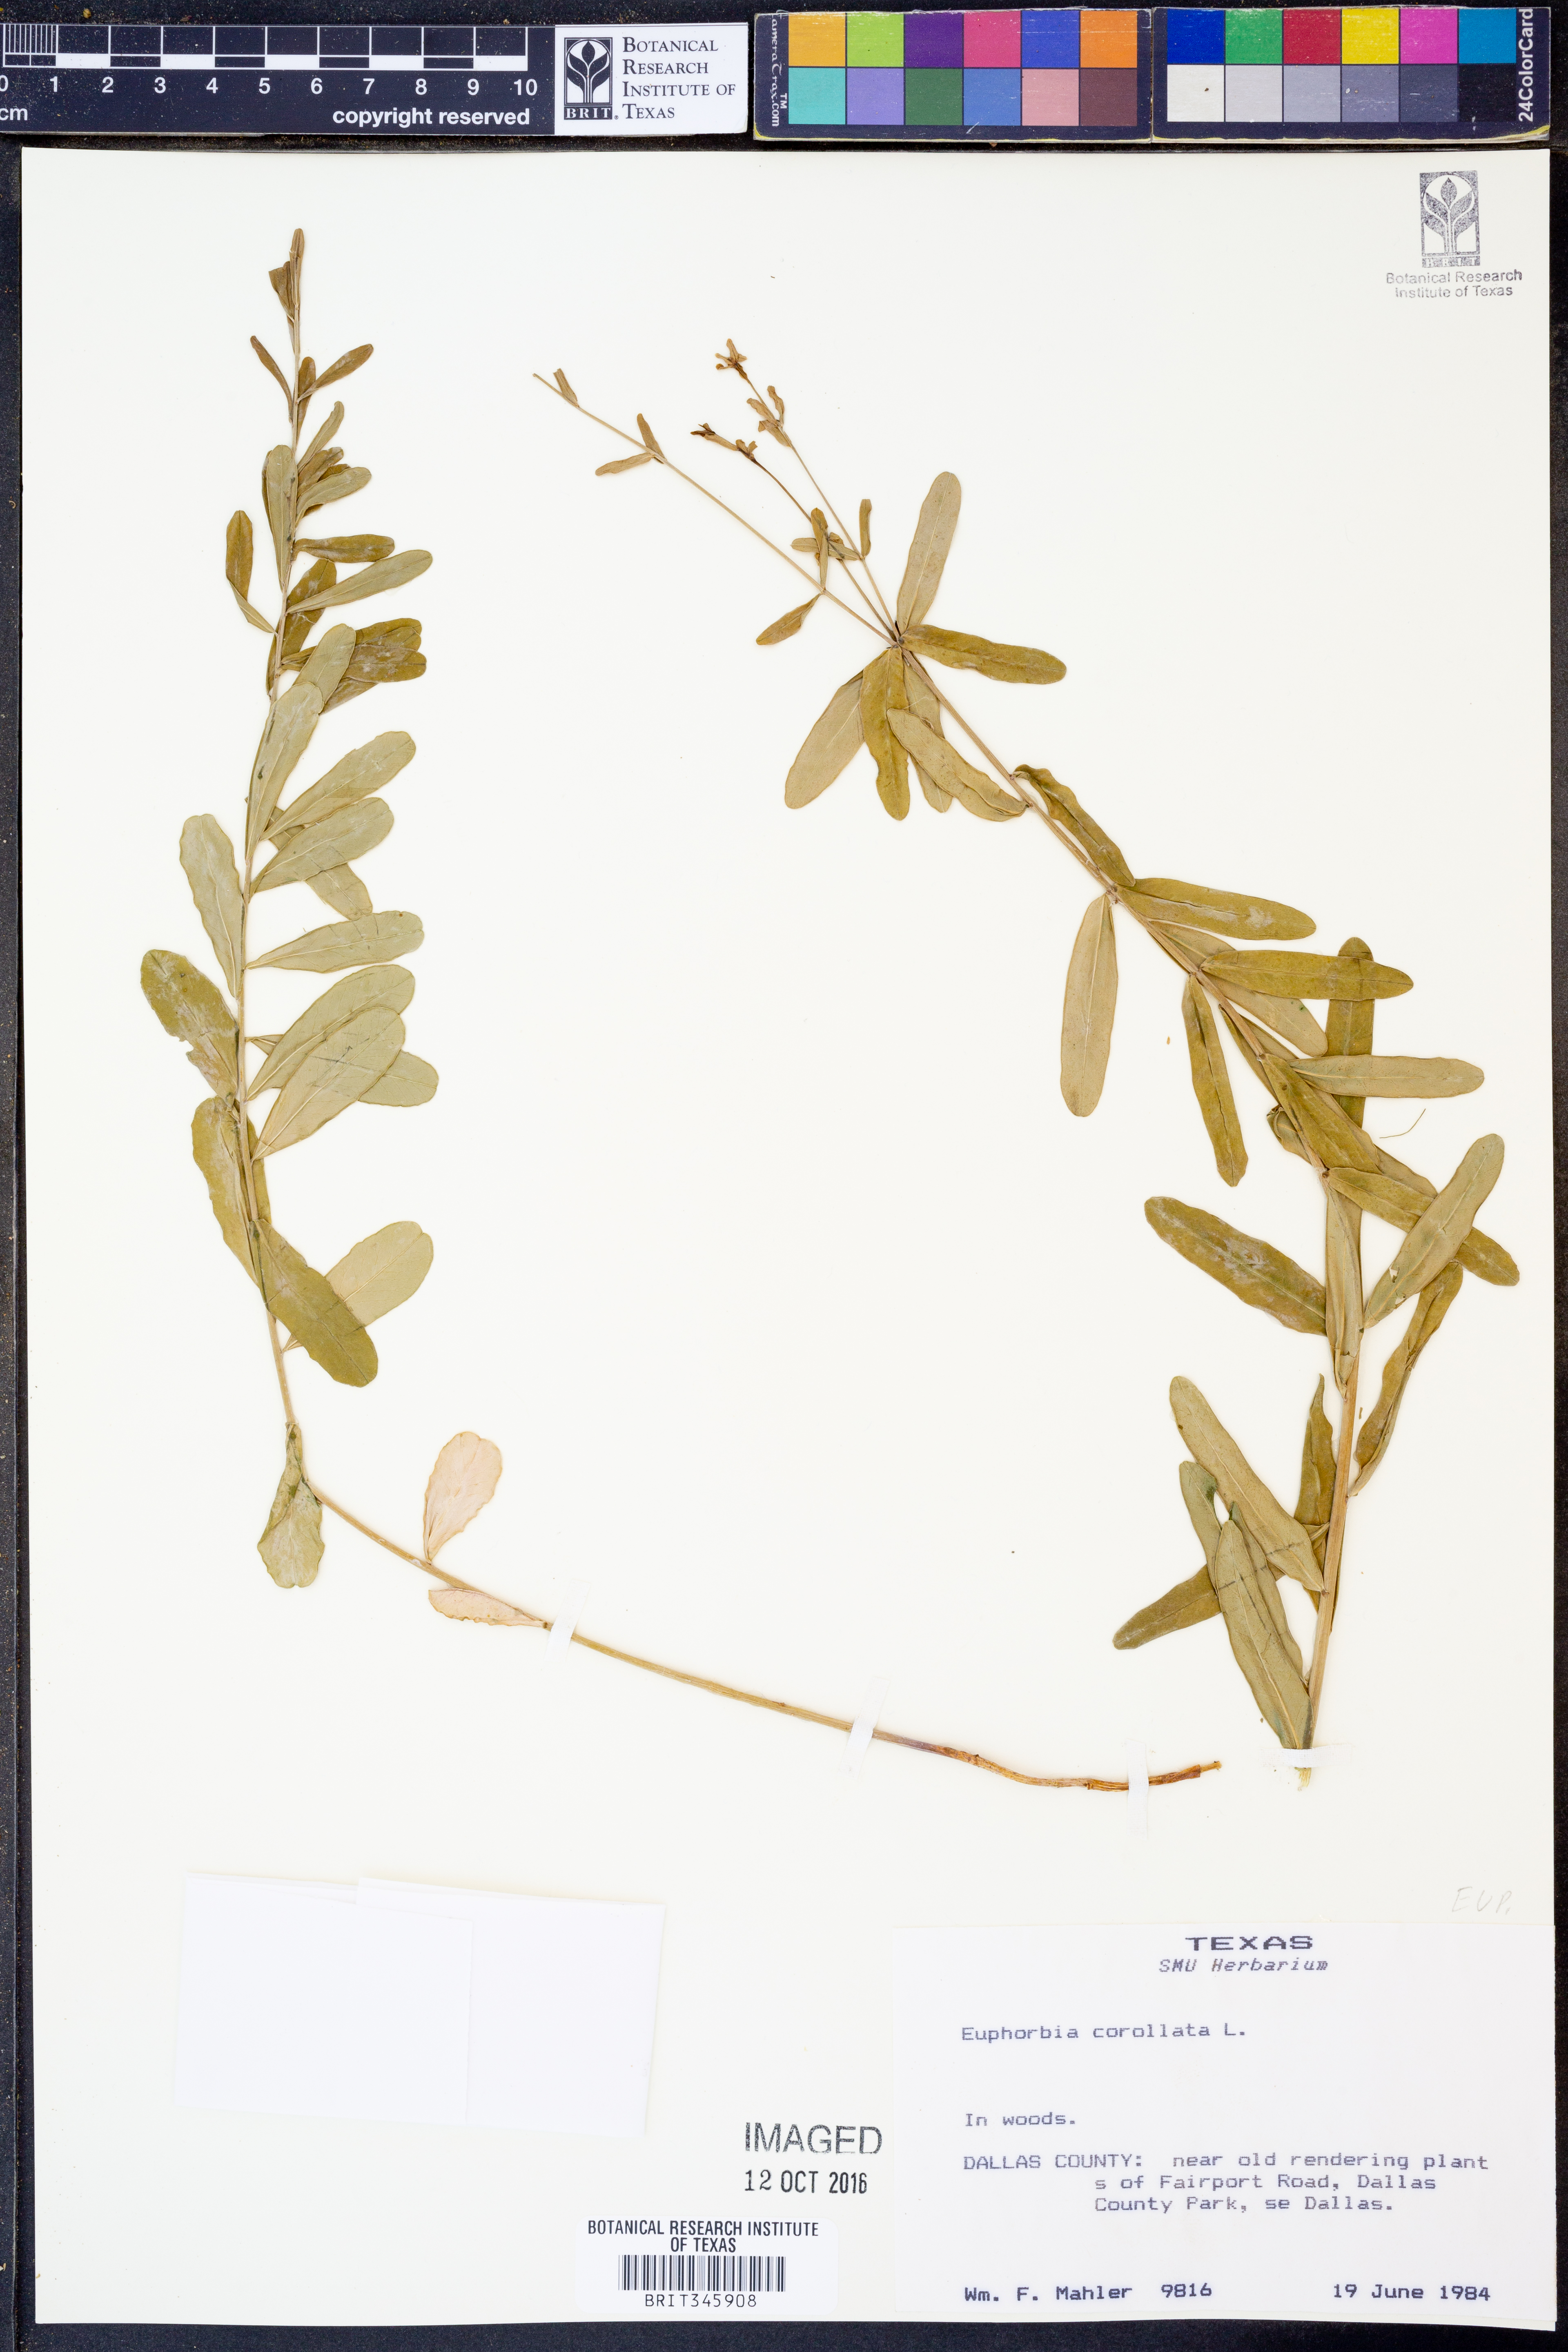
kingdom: Plantae
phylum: Tracheophyta
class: Magnoliopsida
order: Malpighiales
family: Euphorbiaceae
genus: Euphorbia
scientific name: Euphorbia corollata
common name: Flowering spurge
